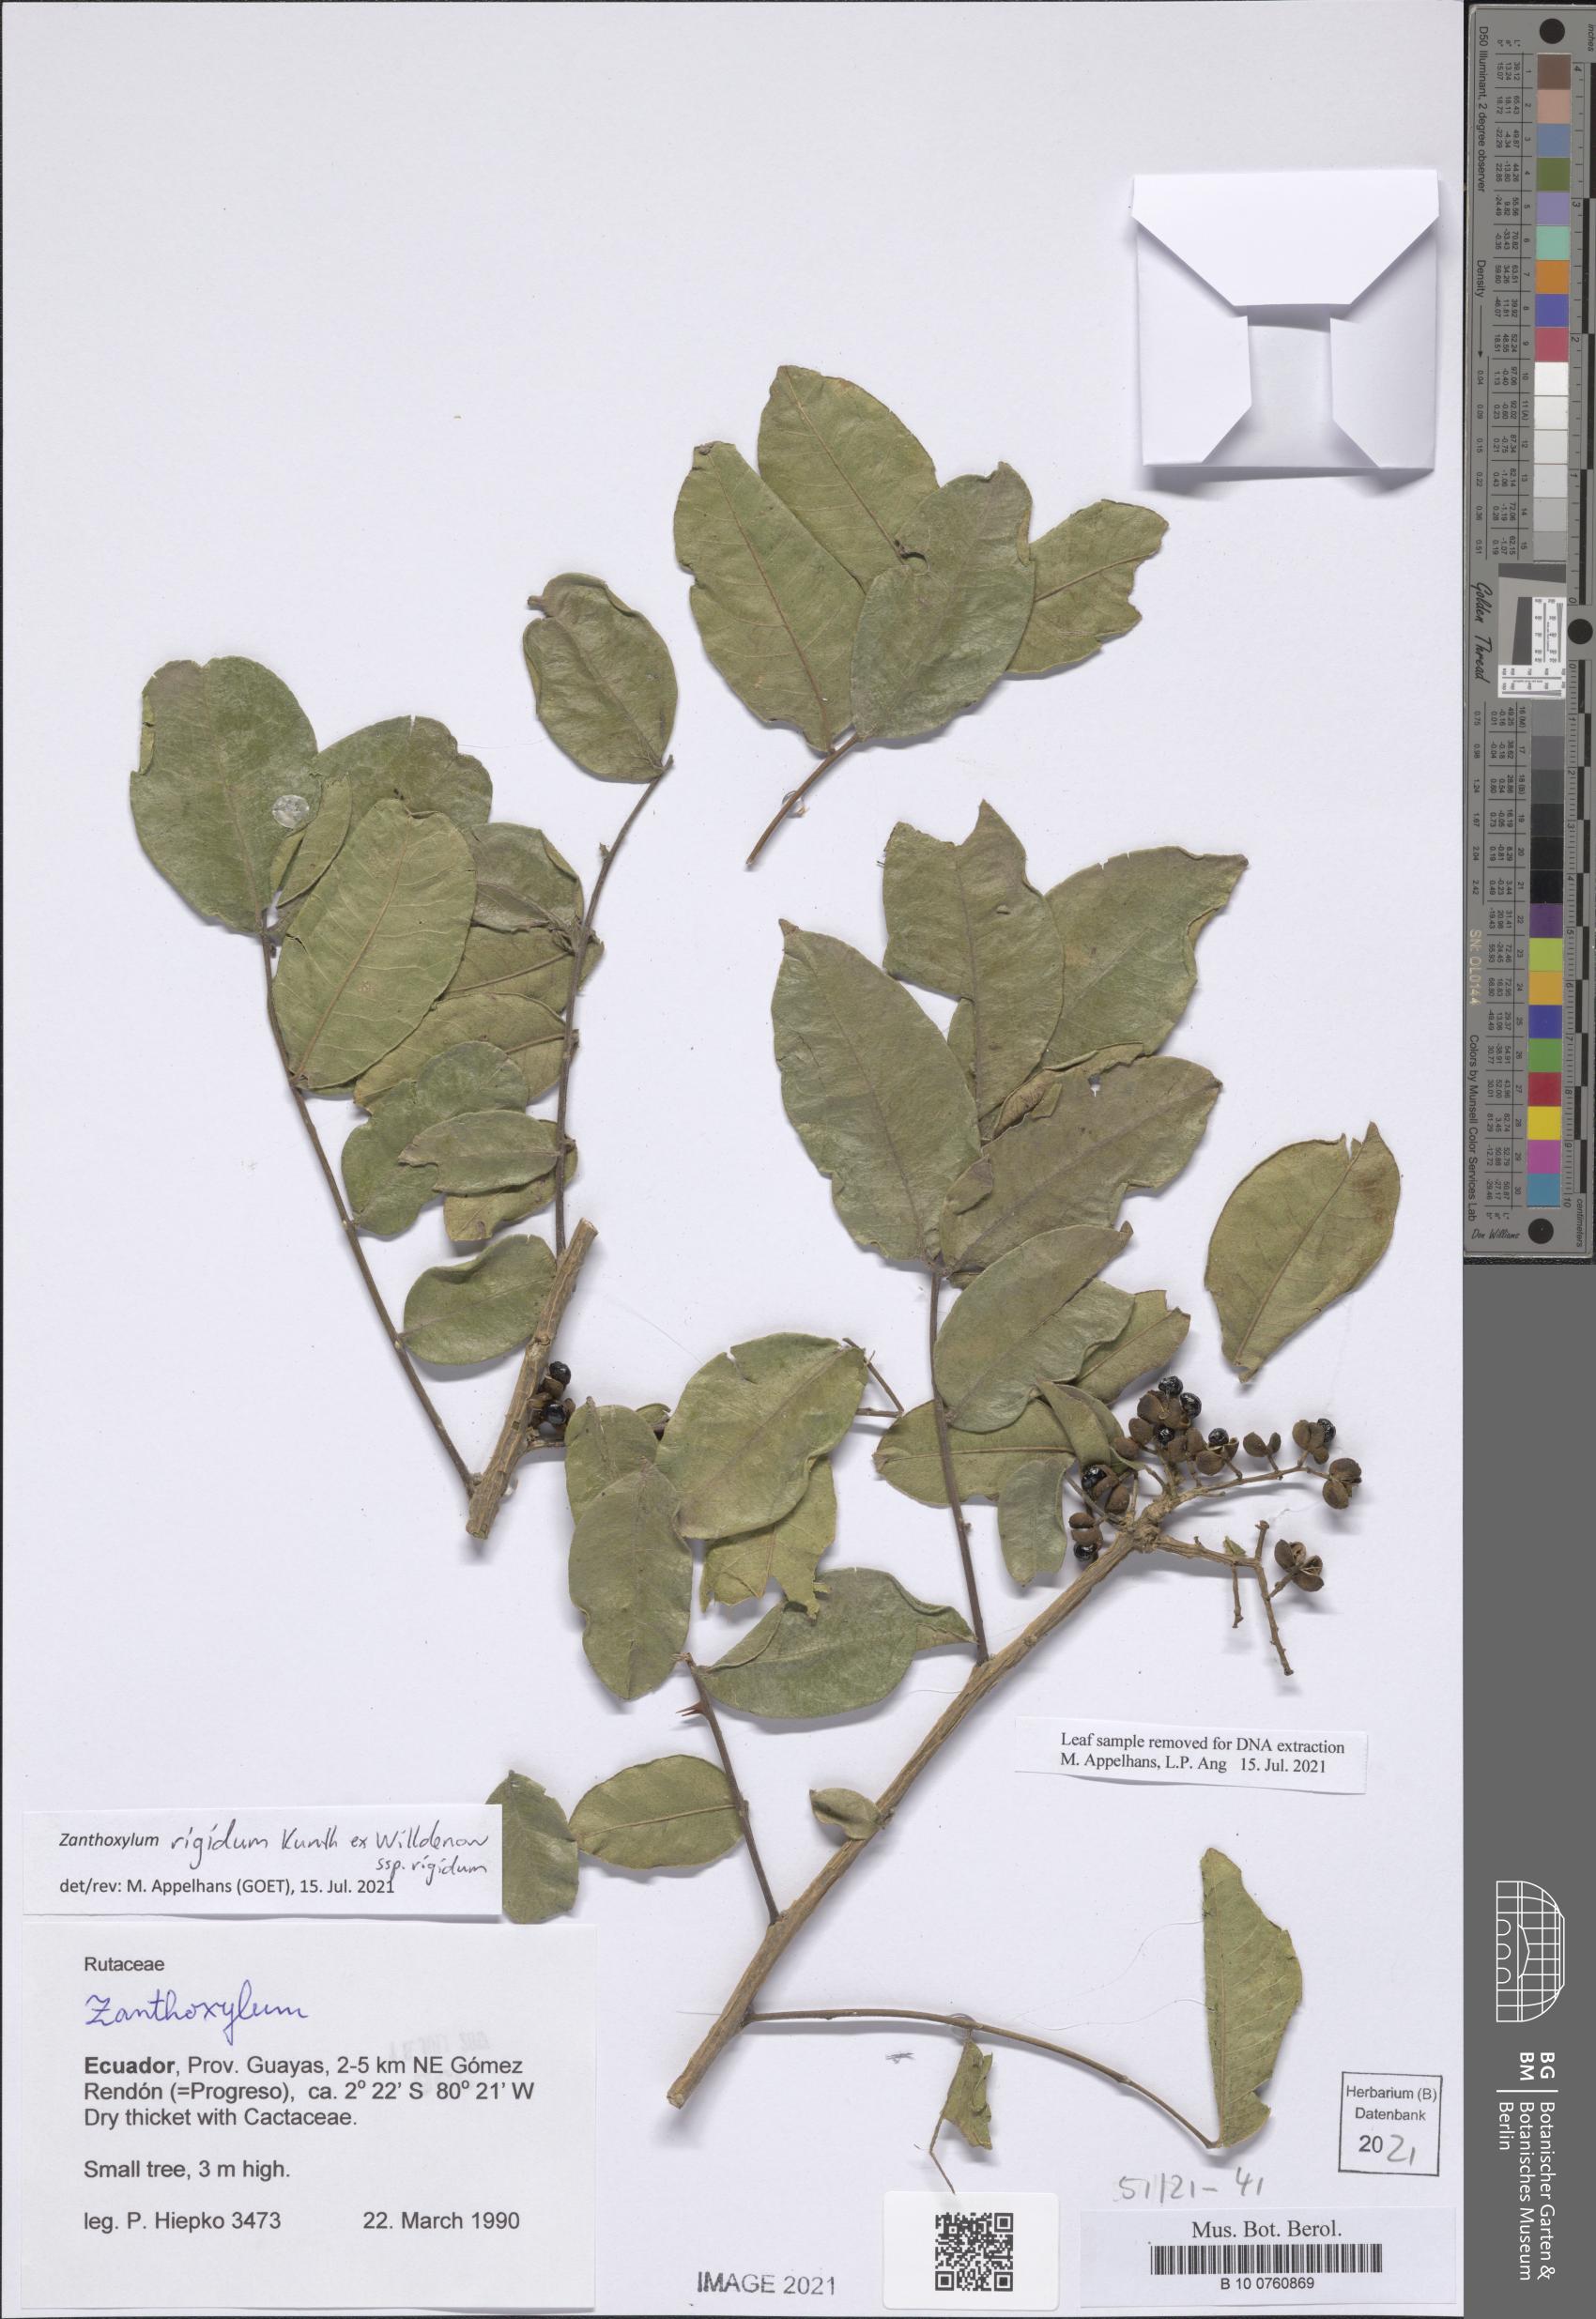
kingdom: Plantae
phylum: Tracheophyta
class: Magnoliopsida
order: Sapindales
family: Rutaceae
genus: Zanthoxylum
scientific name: Zanthoxylum rigidum
